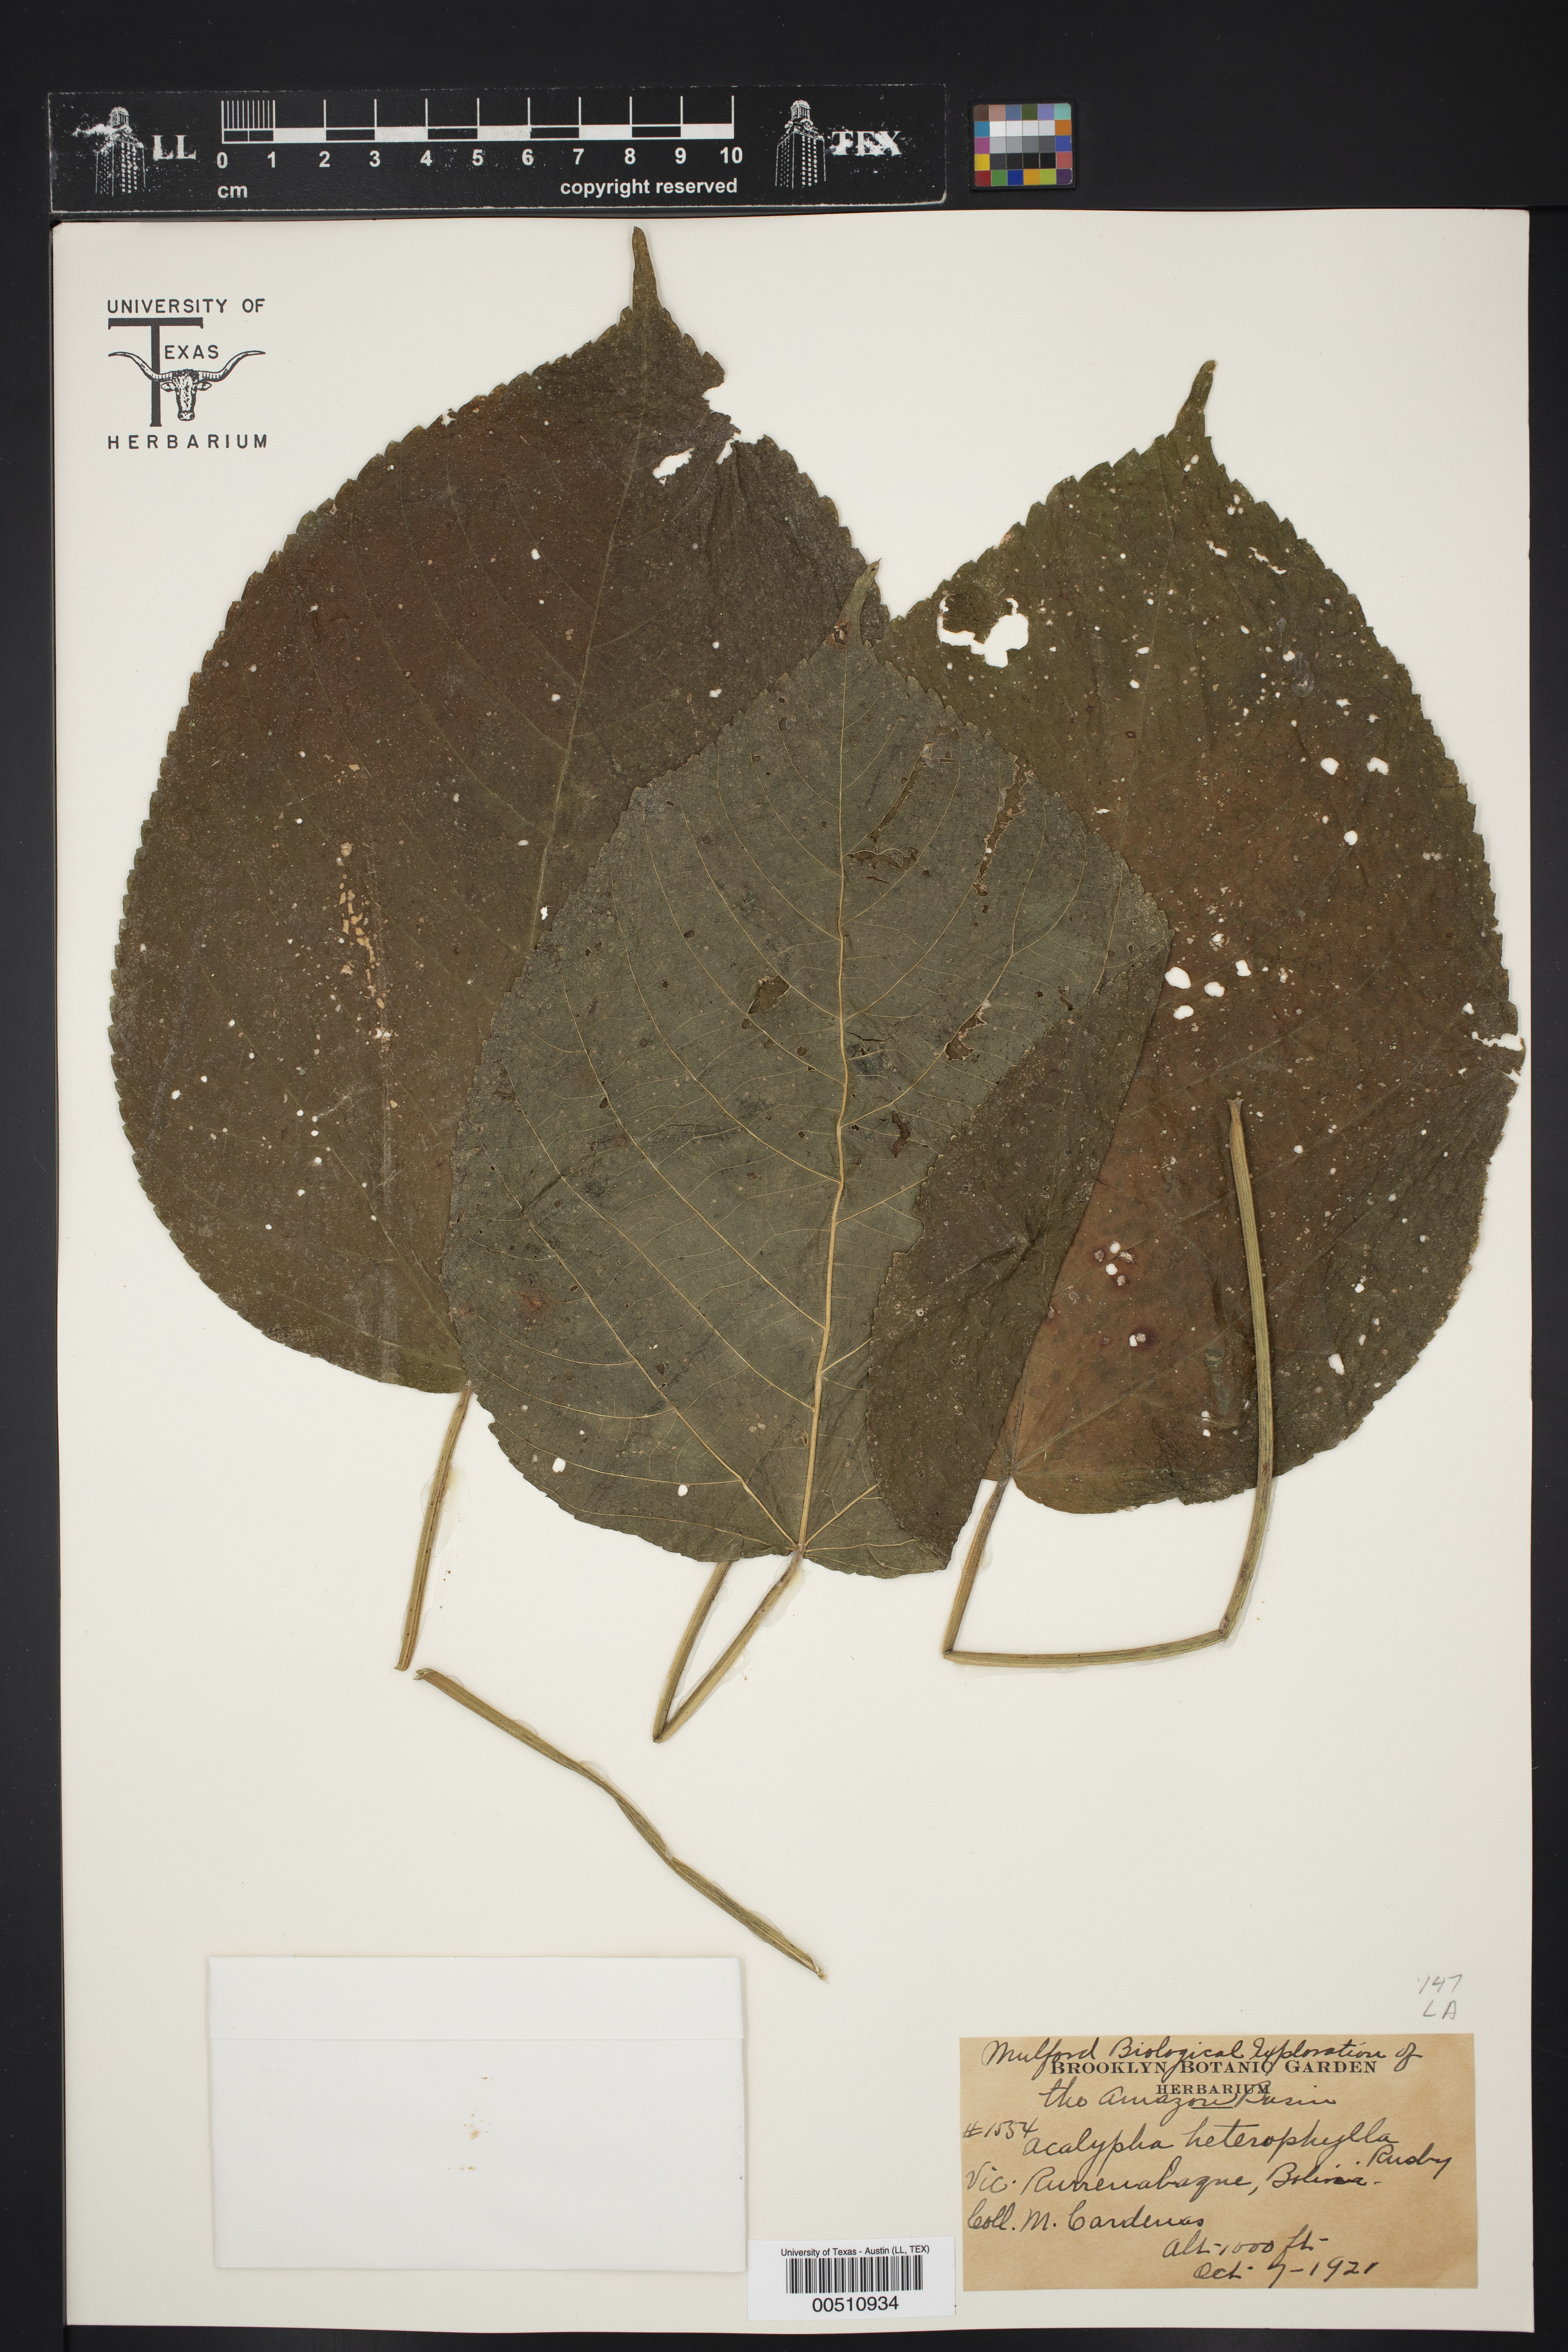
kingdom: Plantae
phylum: Tracheophyta
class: Magnoliopsida
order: Malpighiales
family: Euphorbiaceae
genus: Acalypha
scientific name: Acalypha macrostachya
